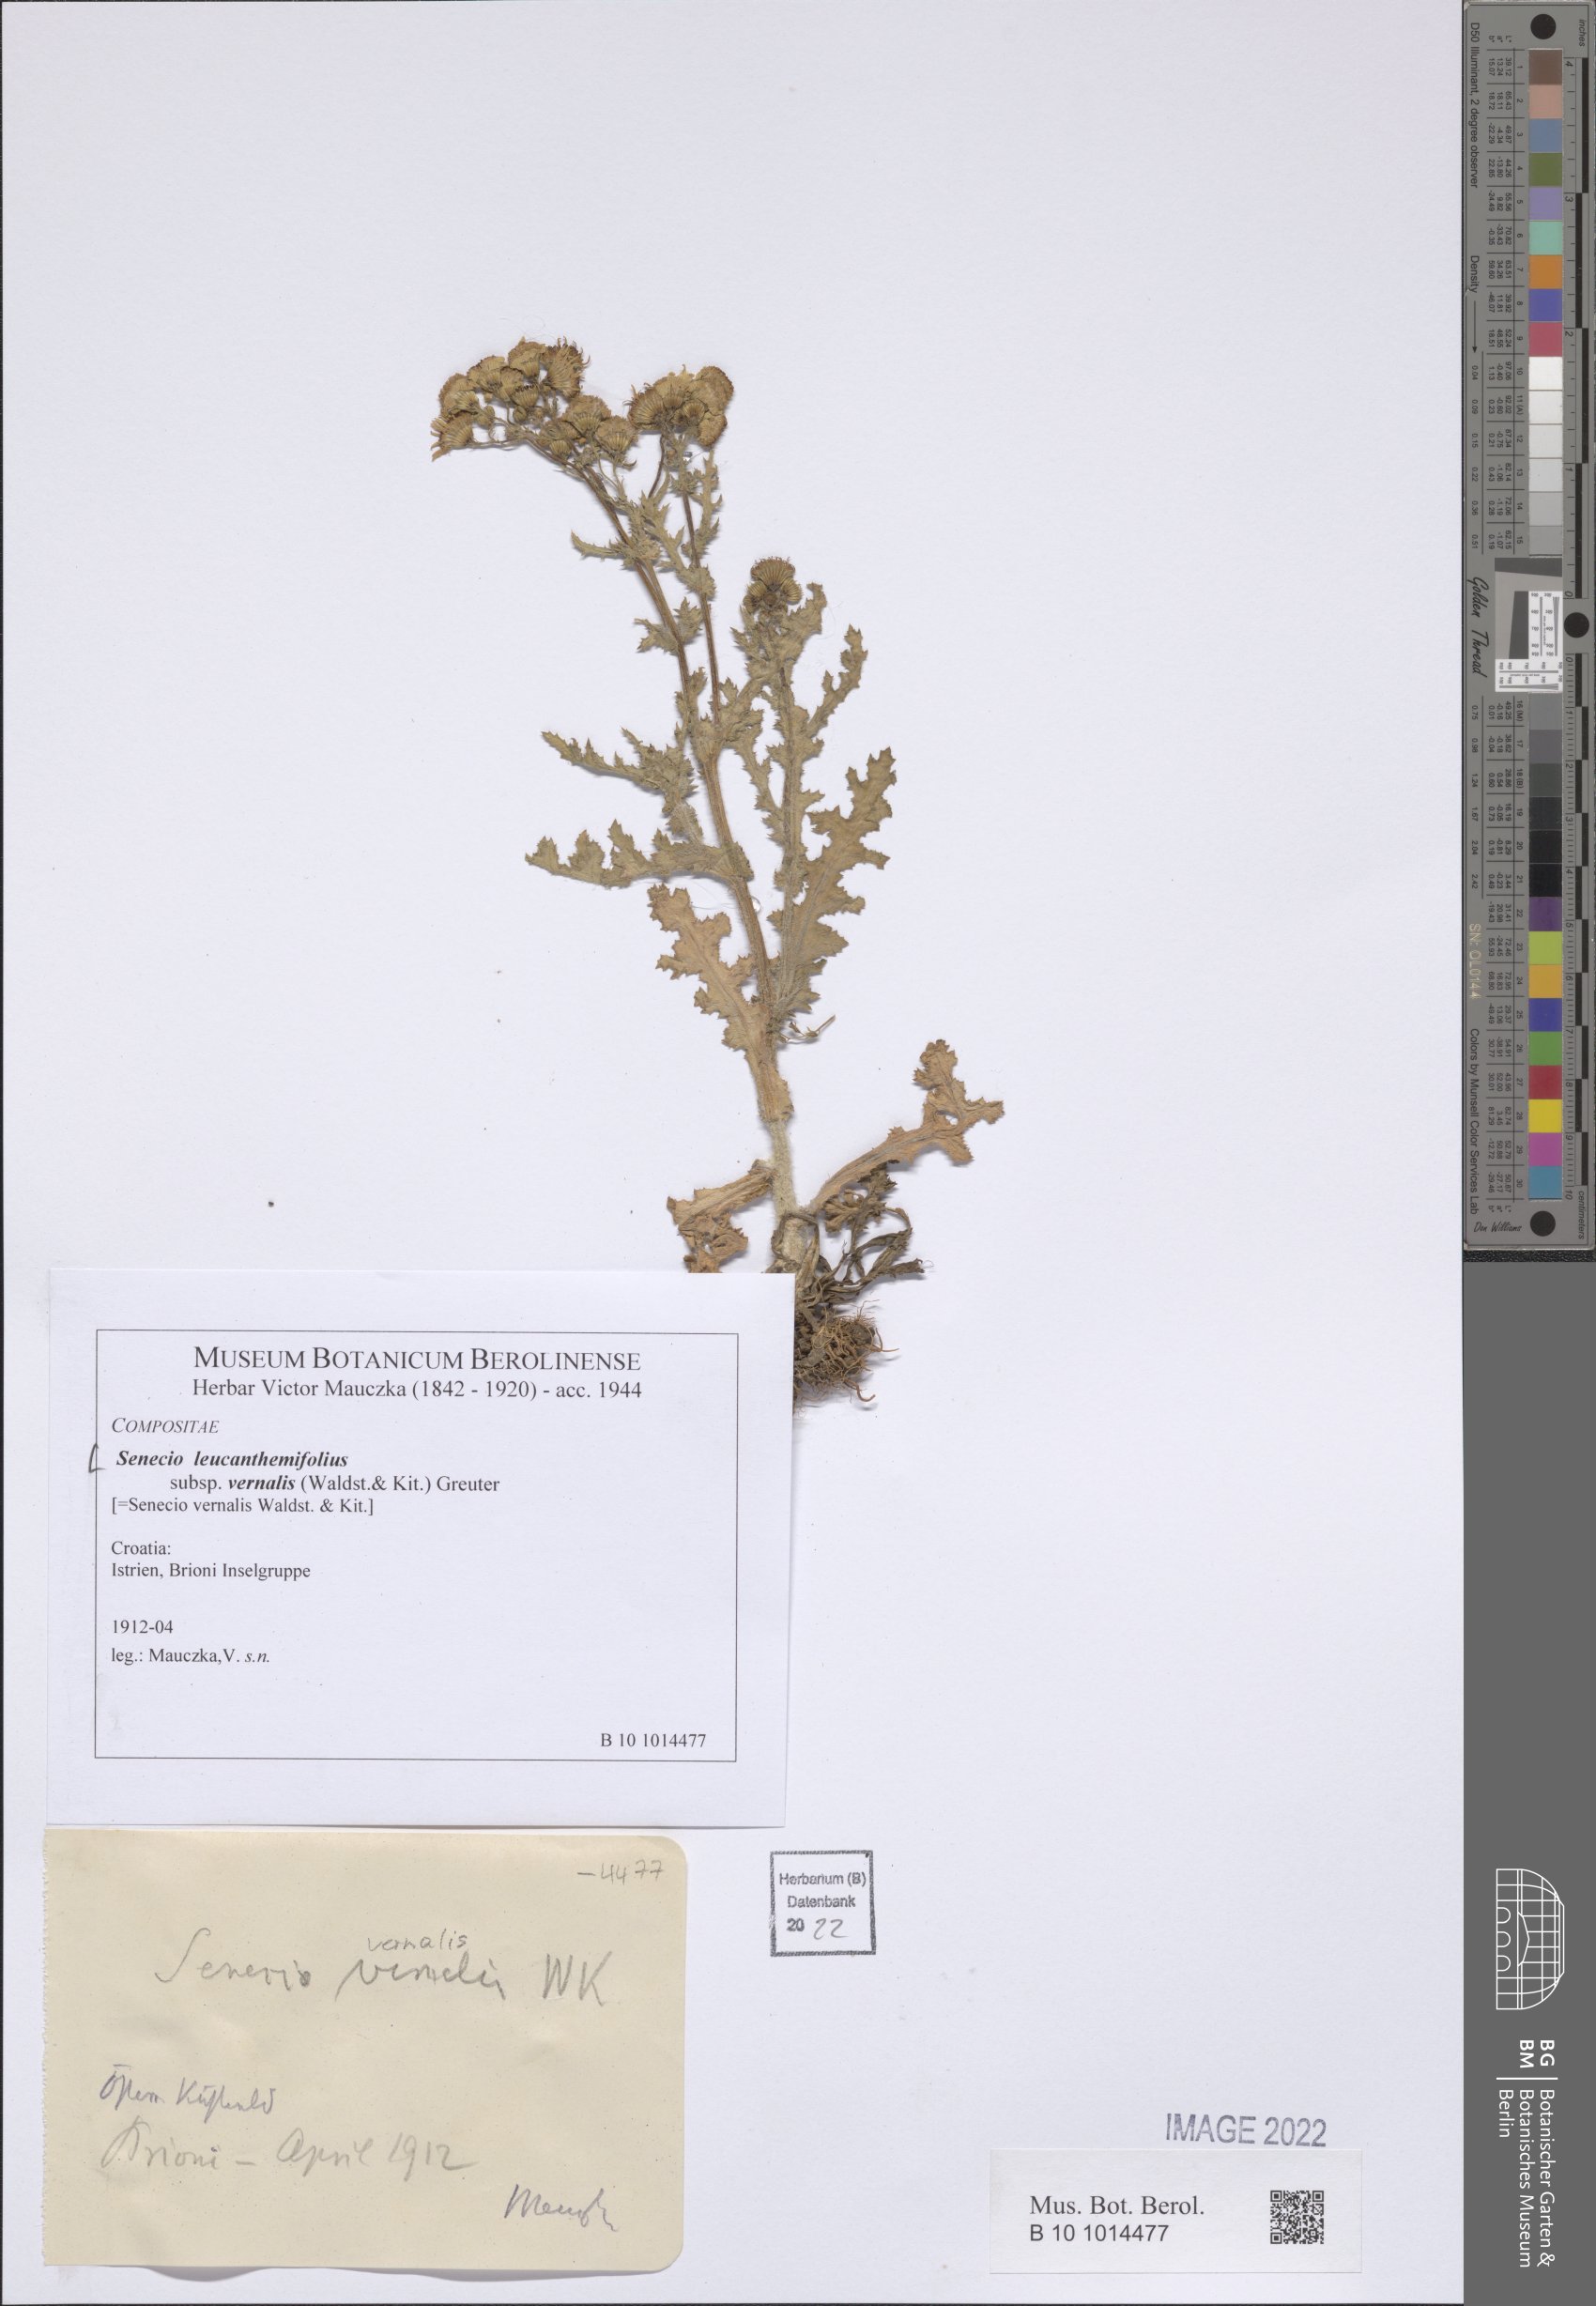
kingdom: Plantae
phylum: Tracheophyta
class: Magnoliopsida
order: Asterales
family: Asteraceae
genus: Senecio
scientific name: Senecio vernalis
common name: Eastern groundsel
